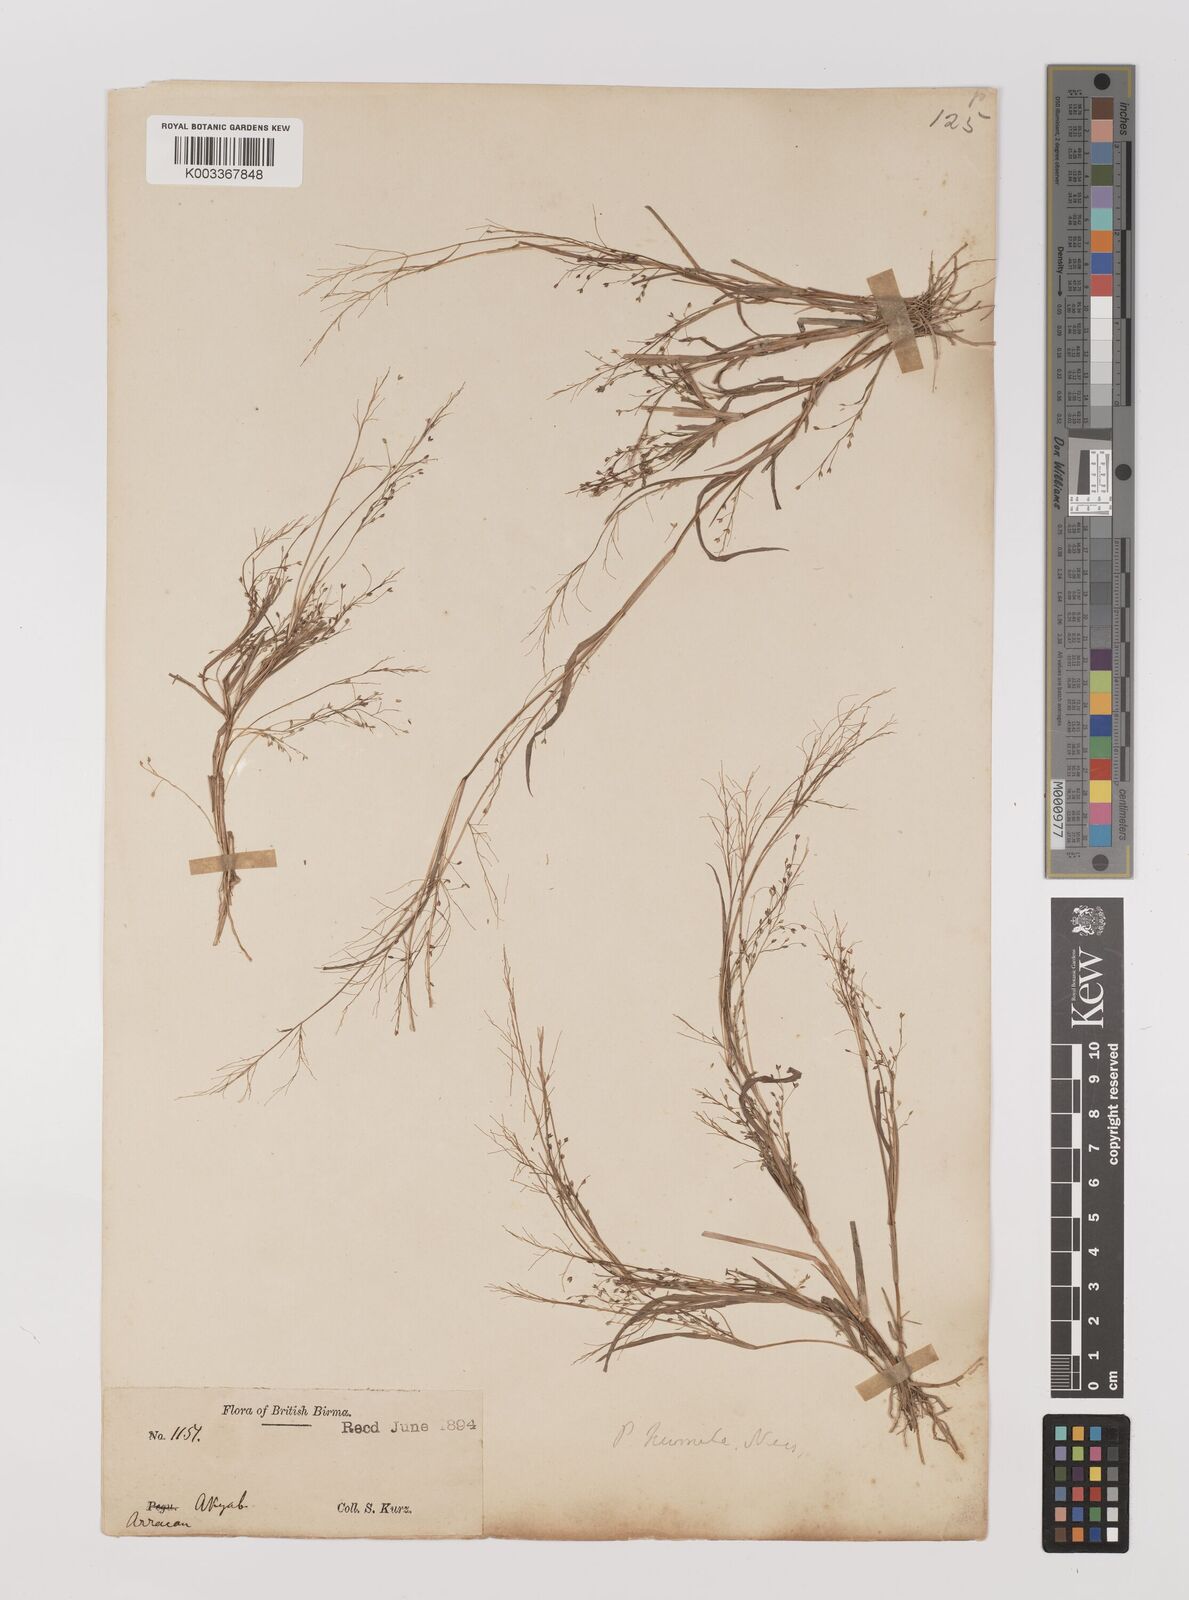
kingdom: Plantae
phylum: Tracheophyta
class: Liliopsida
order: Poales
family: Poaceae
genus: Panicum
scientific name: Panicum humile
